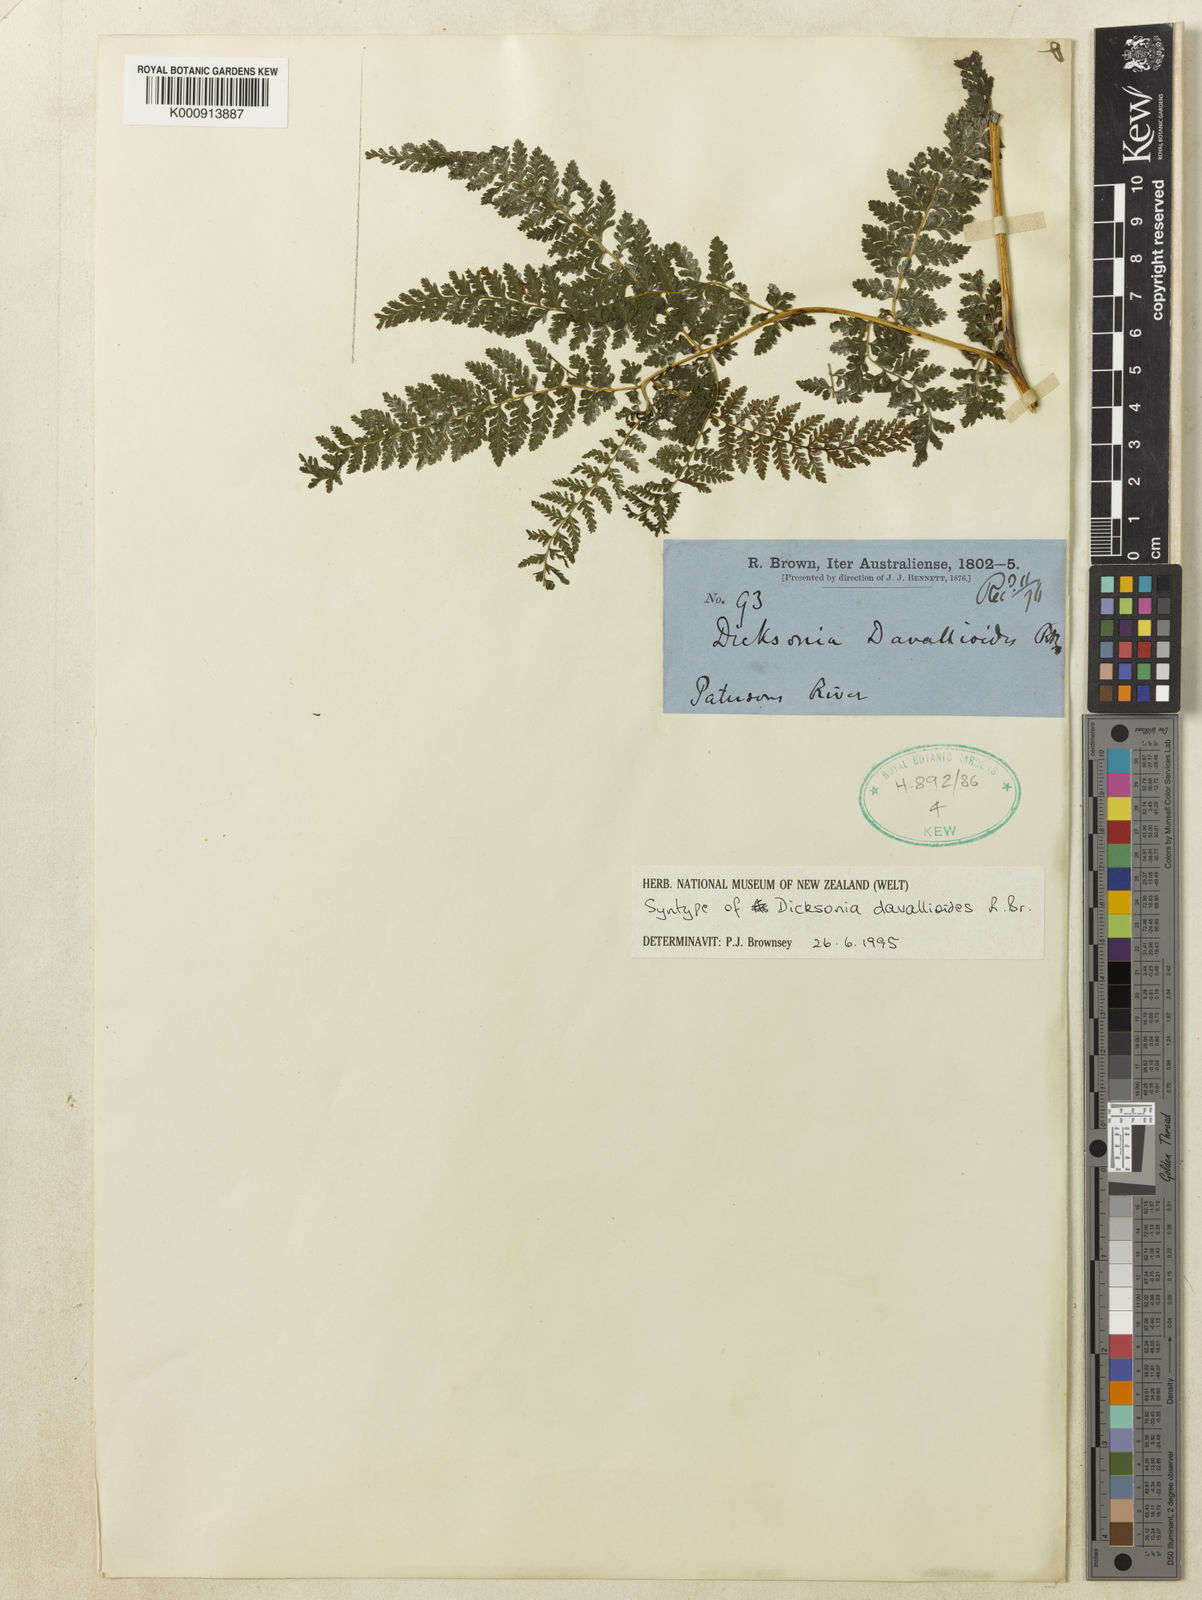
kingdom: Plantae
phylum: Tracheophyta
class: Polypodiopsida
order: Polypodiales
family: Dennstaedtiaceae
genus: Dennstaedtia
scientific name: Dennstaedtia davallioides
